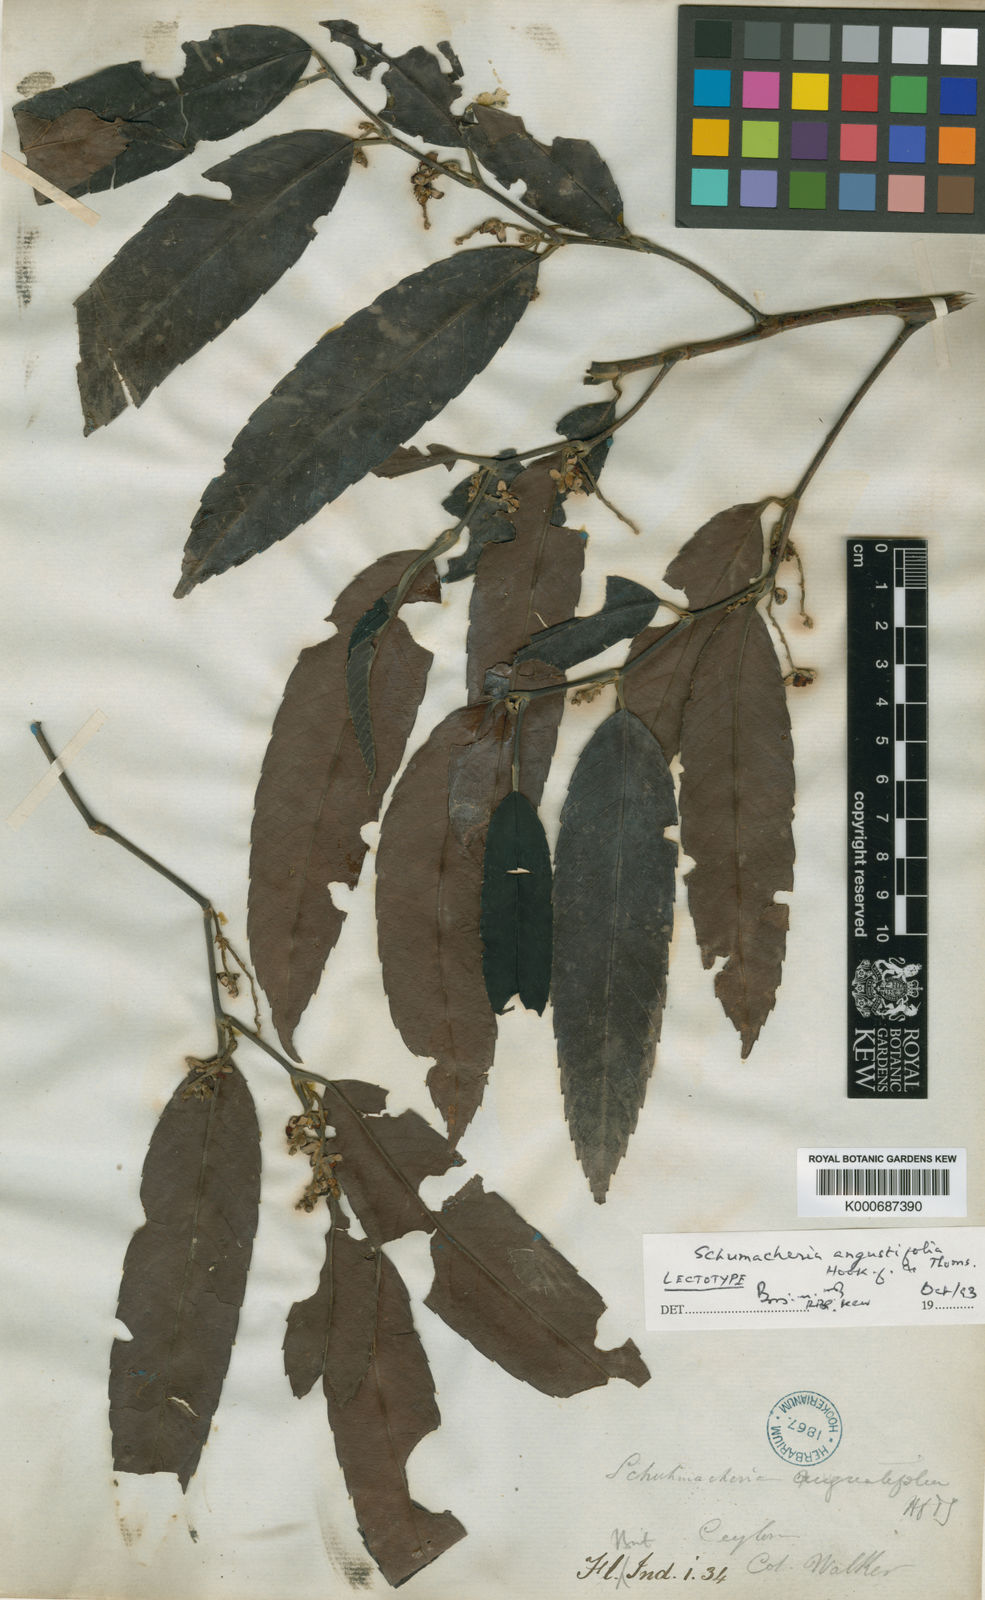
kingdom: Plantae
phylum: Tracheophyta
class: Magnoliopsida
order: Dilleniales
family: Dilleniaceae
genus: Schumacheria
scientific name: Schumacheria angustifolia
